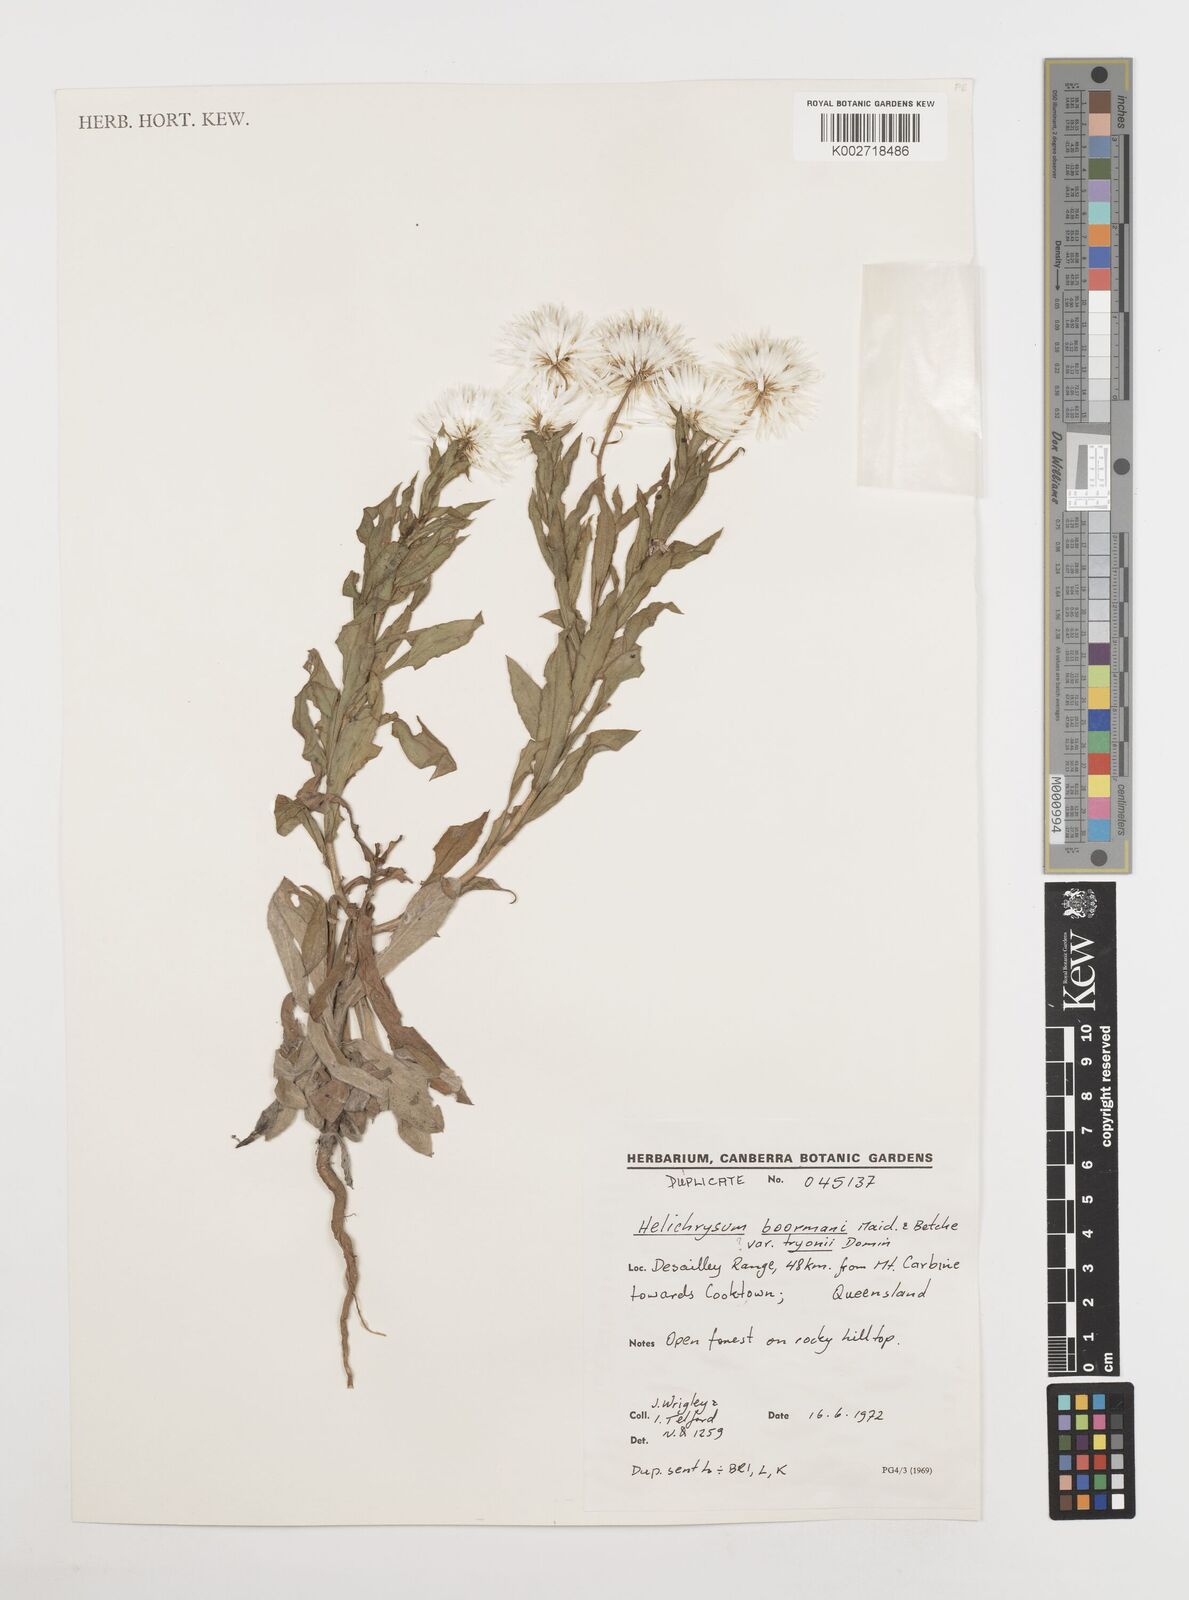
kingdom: Plantae
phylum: Tracheophyta
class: Magnoliopsida
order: Asterales
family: Asteraceae
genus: Leucozoma
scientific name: Leucozoma boormanii
